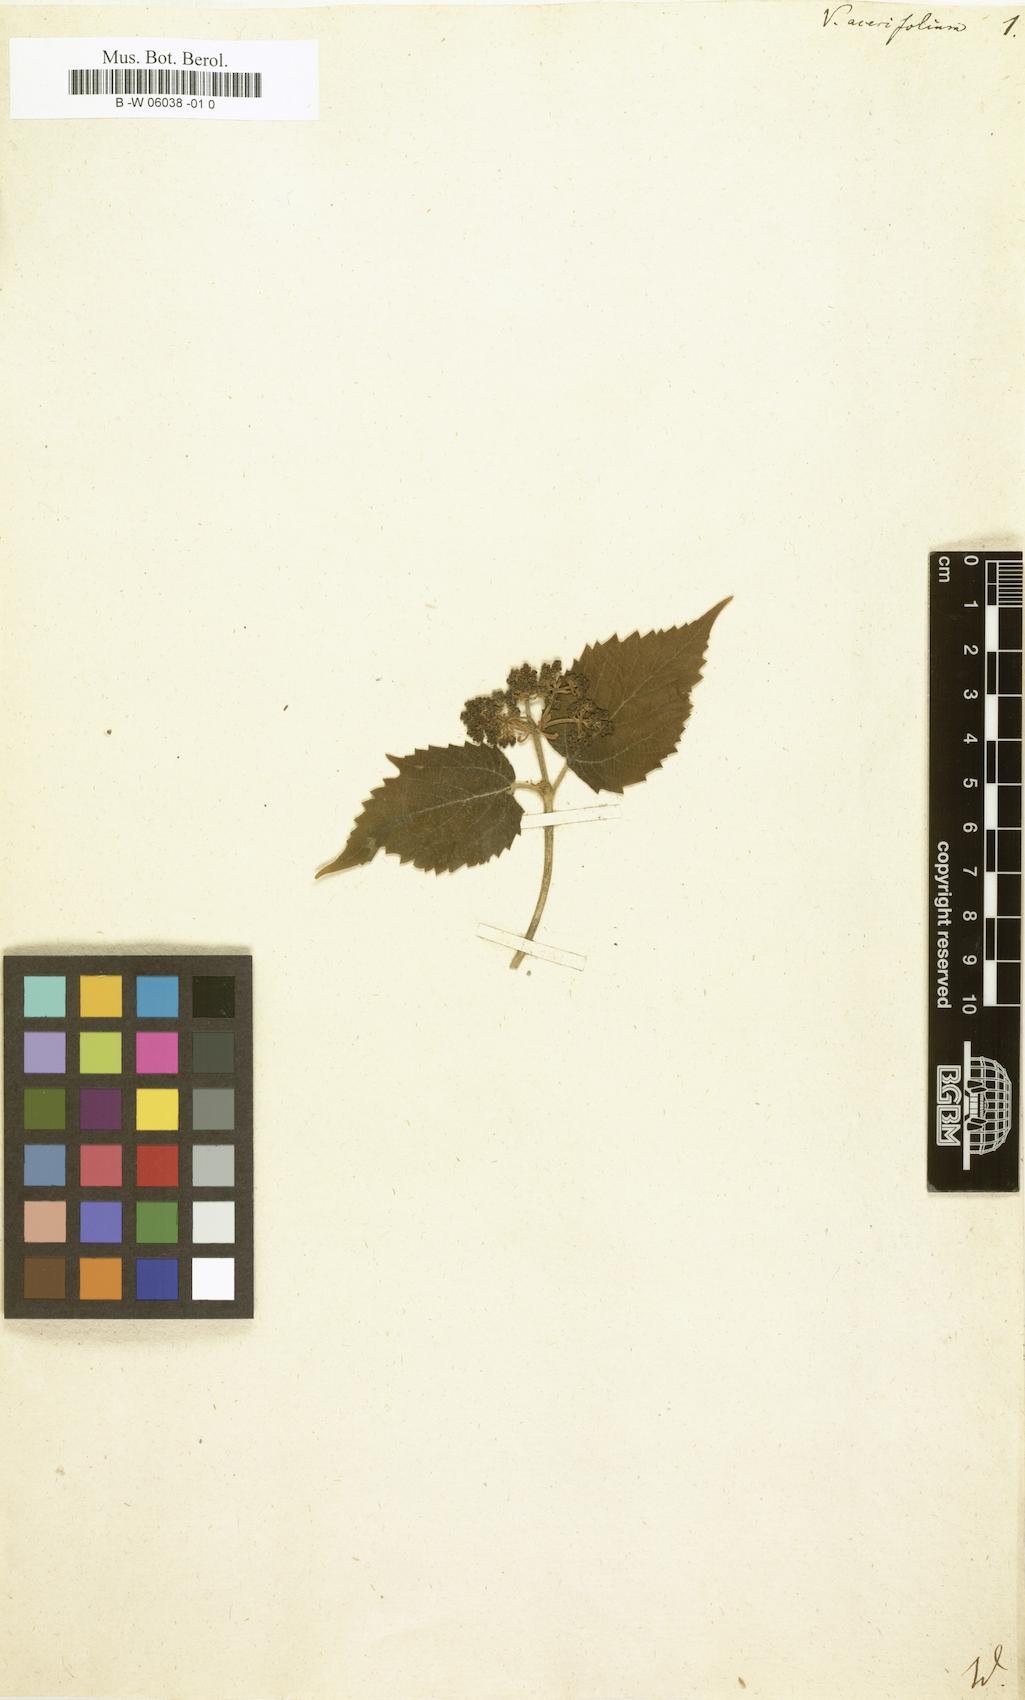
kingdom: Plantae
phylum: Tracheophyta
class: Magnoliopsida
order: Dipsacales
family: Viburnaceae
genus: Viburnum
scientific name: Viburnum acerifolium
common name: Dockmackie
